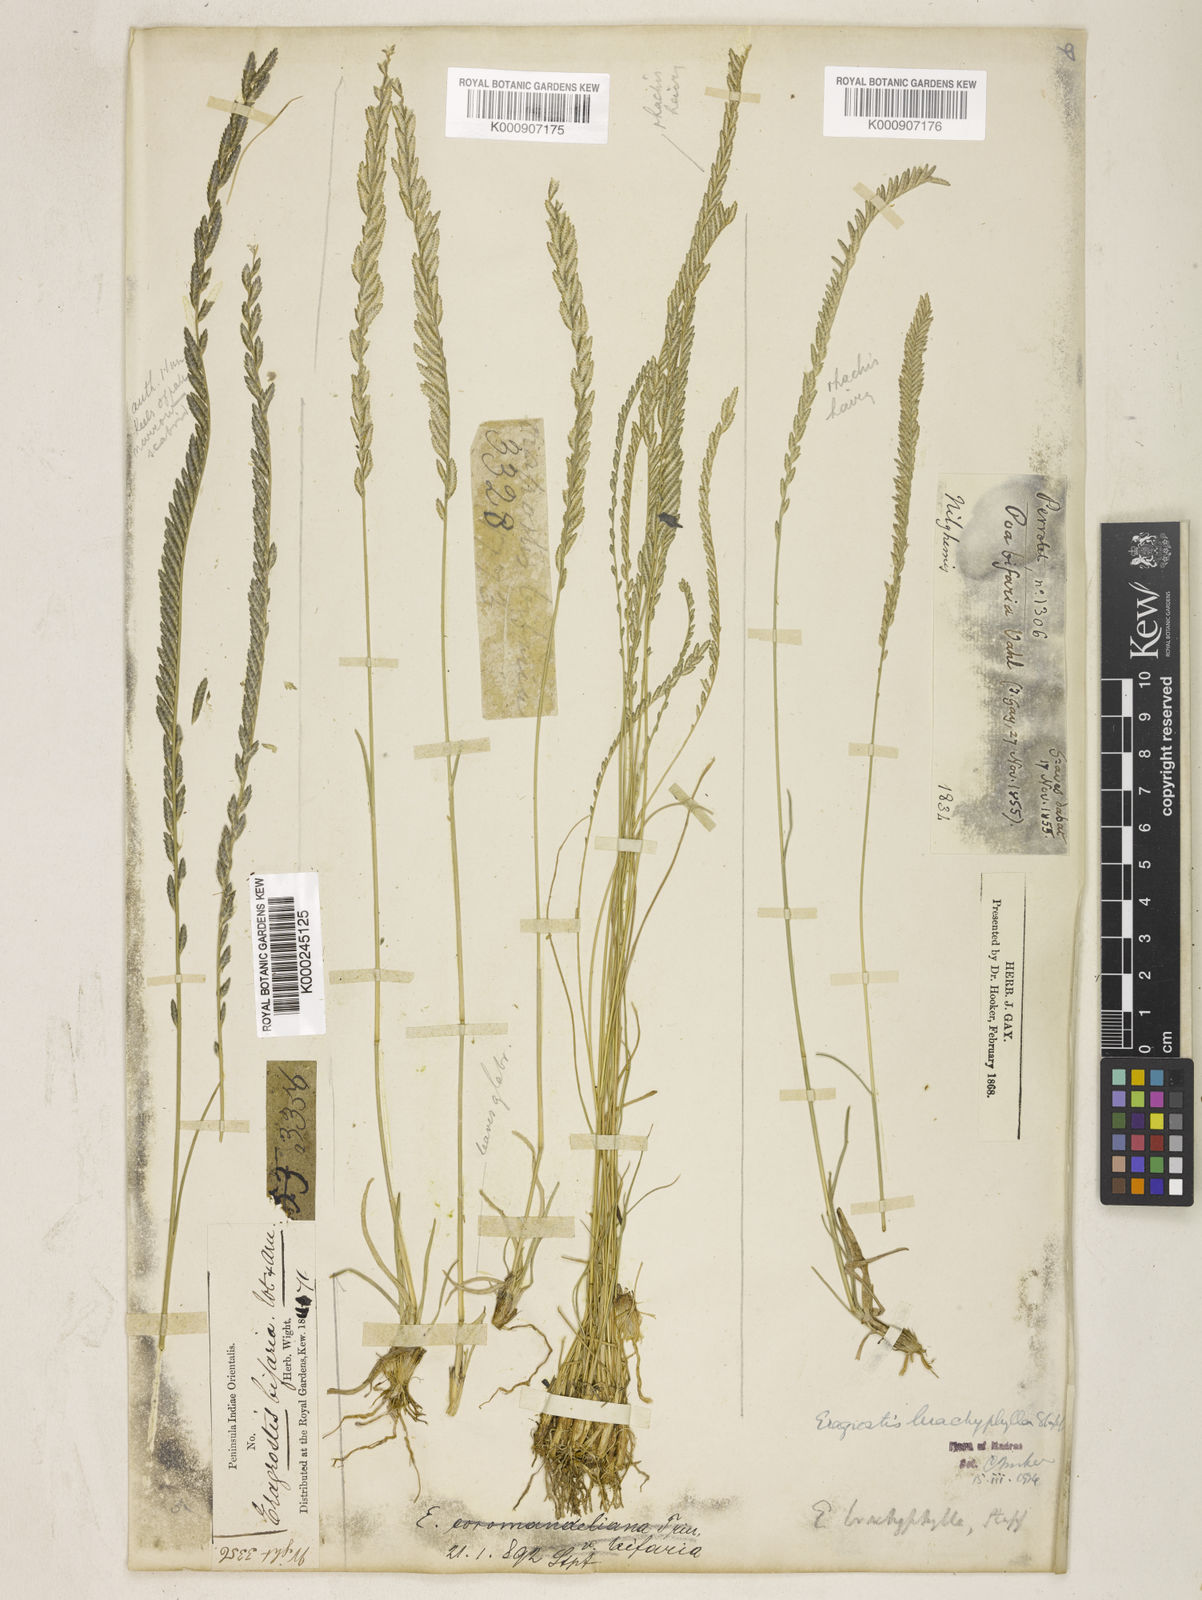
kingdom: Plantae
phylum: Tracheophyta
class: Liliopsida
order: Poales
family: Poaceae
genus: Eragrostiella
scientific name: Eragrostiella brachyphylla
